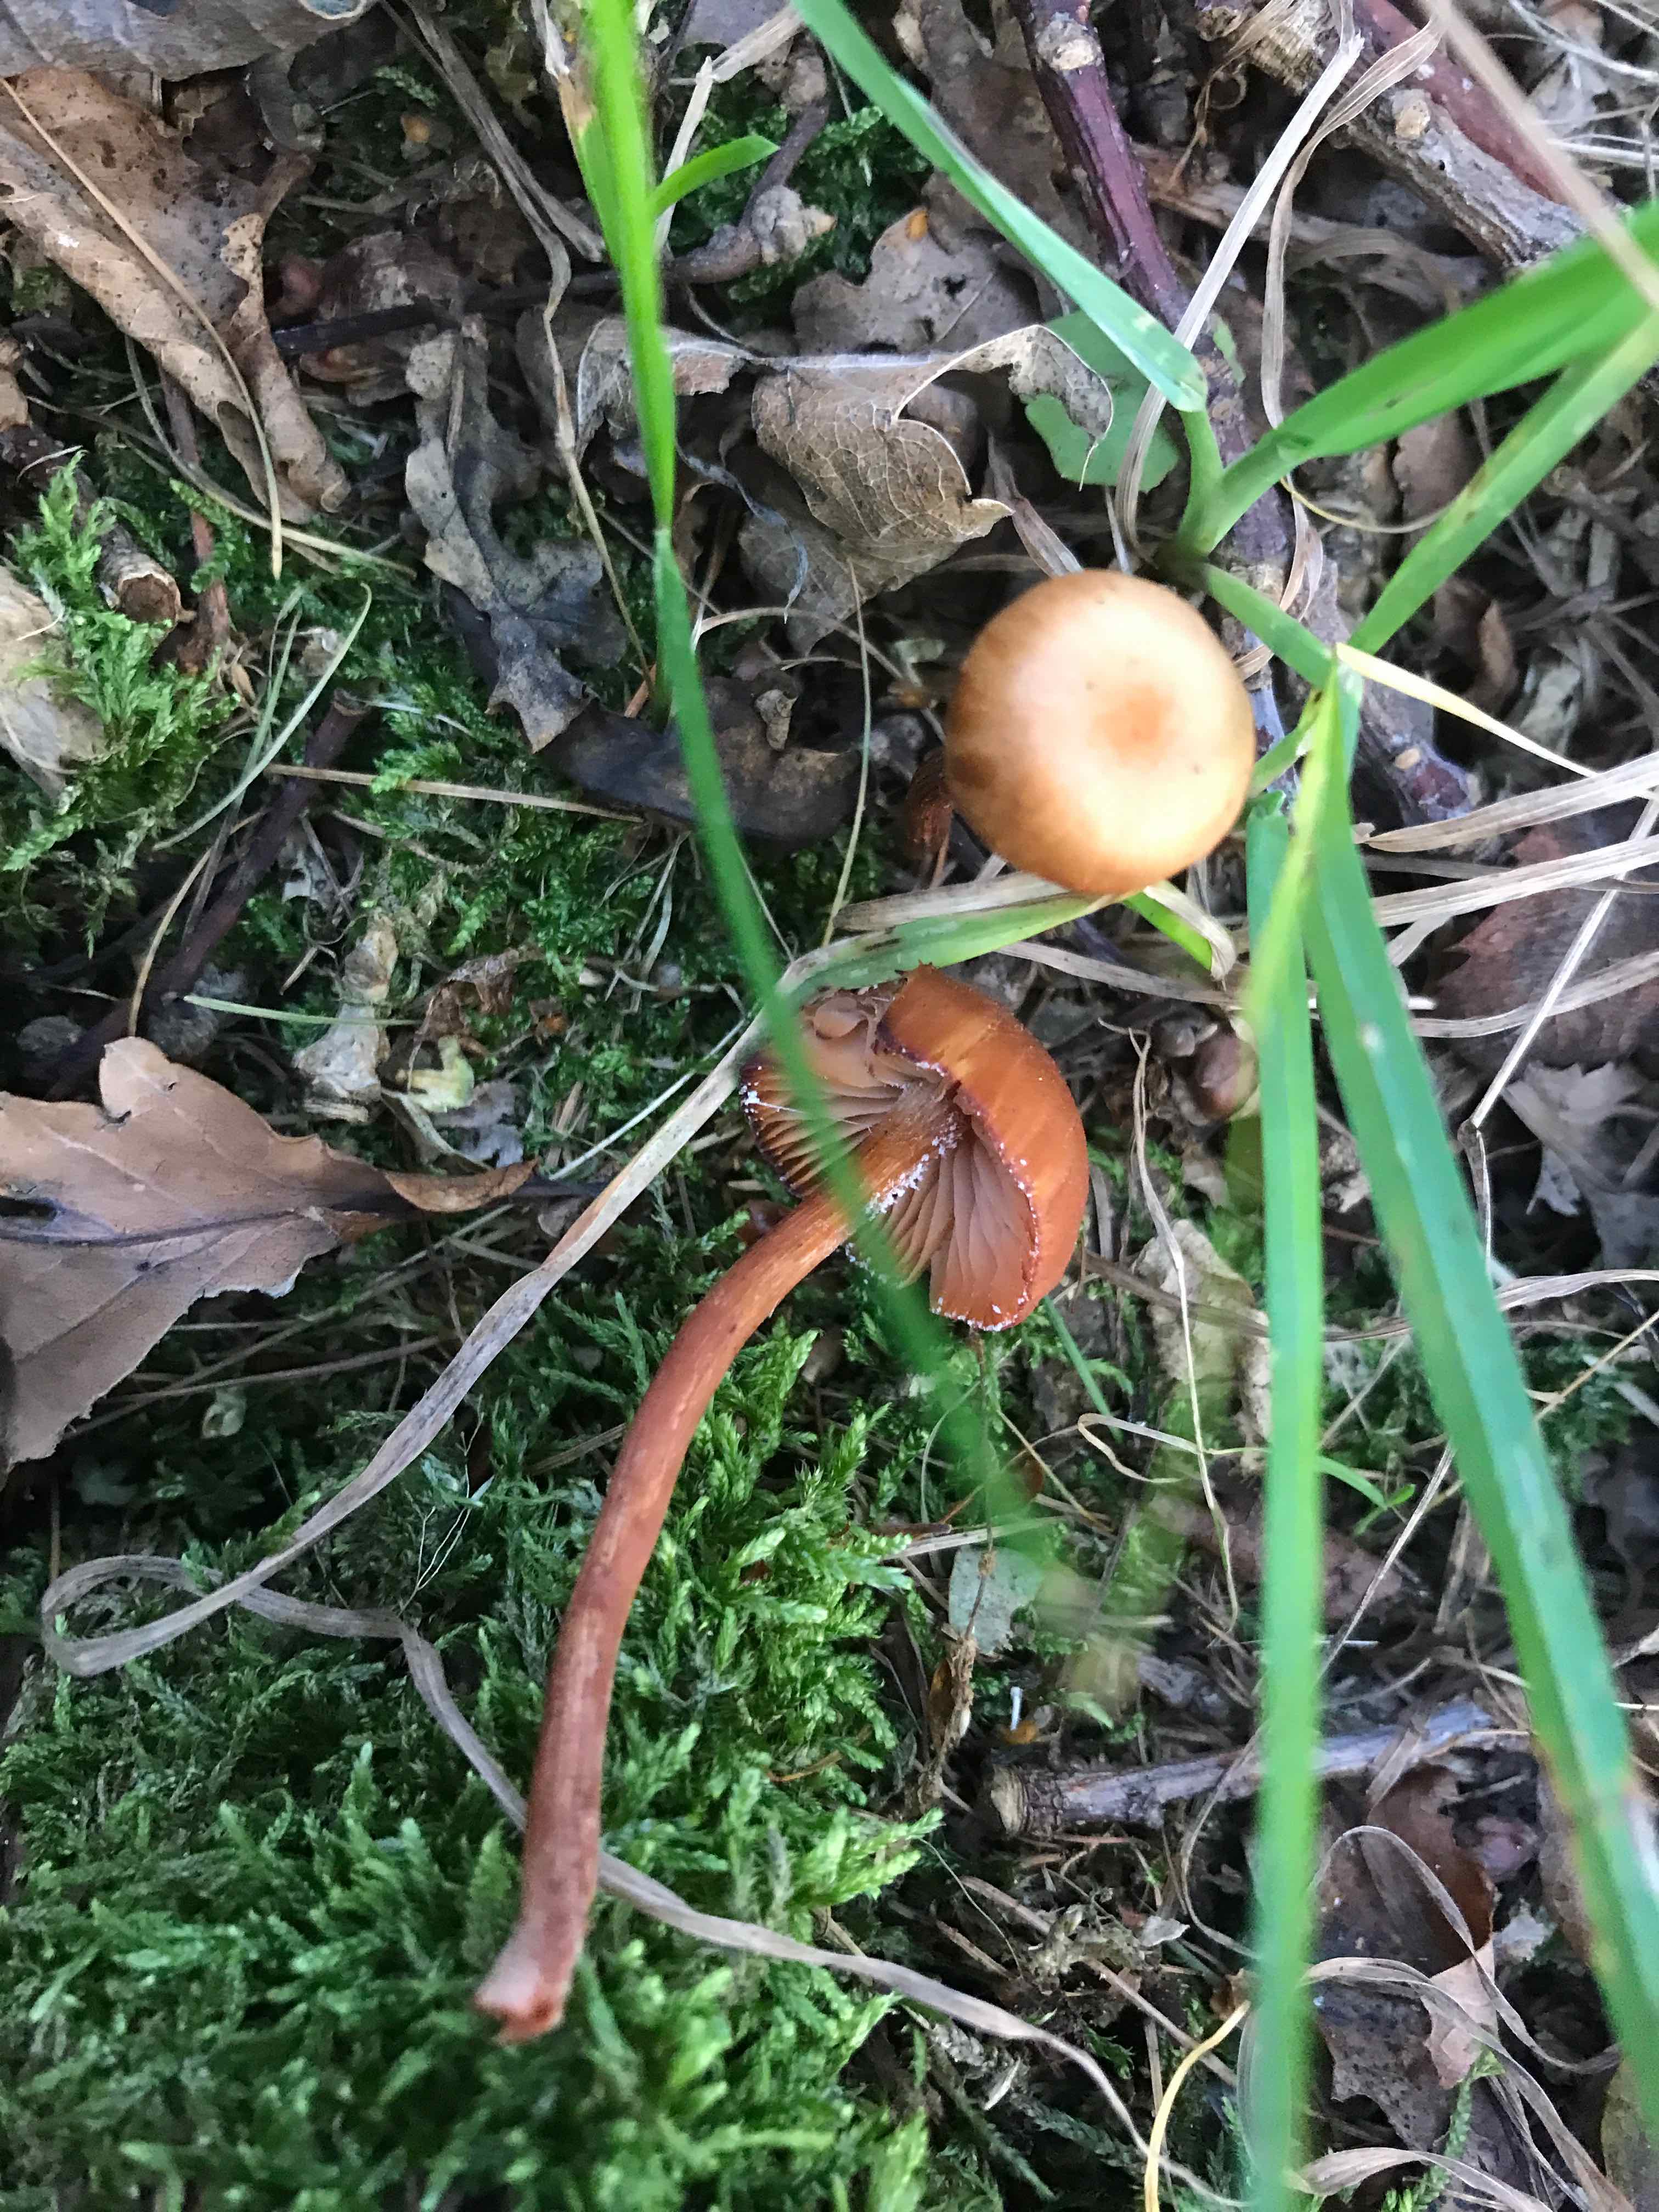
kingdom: Fungi
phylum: Basidiomycota
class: Agaricomycetes
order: Agaricales
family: Hydnangiaceae
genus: Laccaria
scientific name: Laccaria laccata
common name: rød ametysthat
